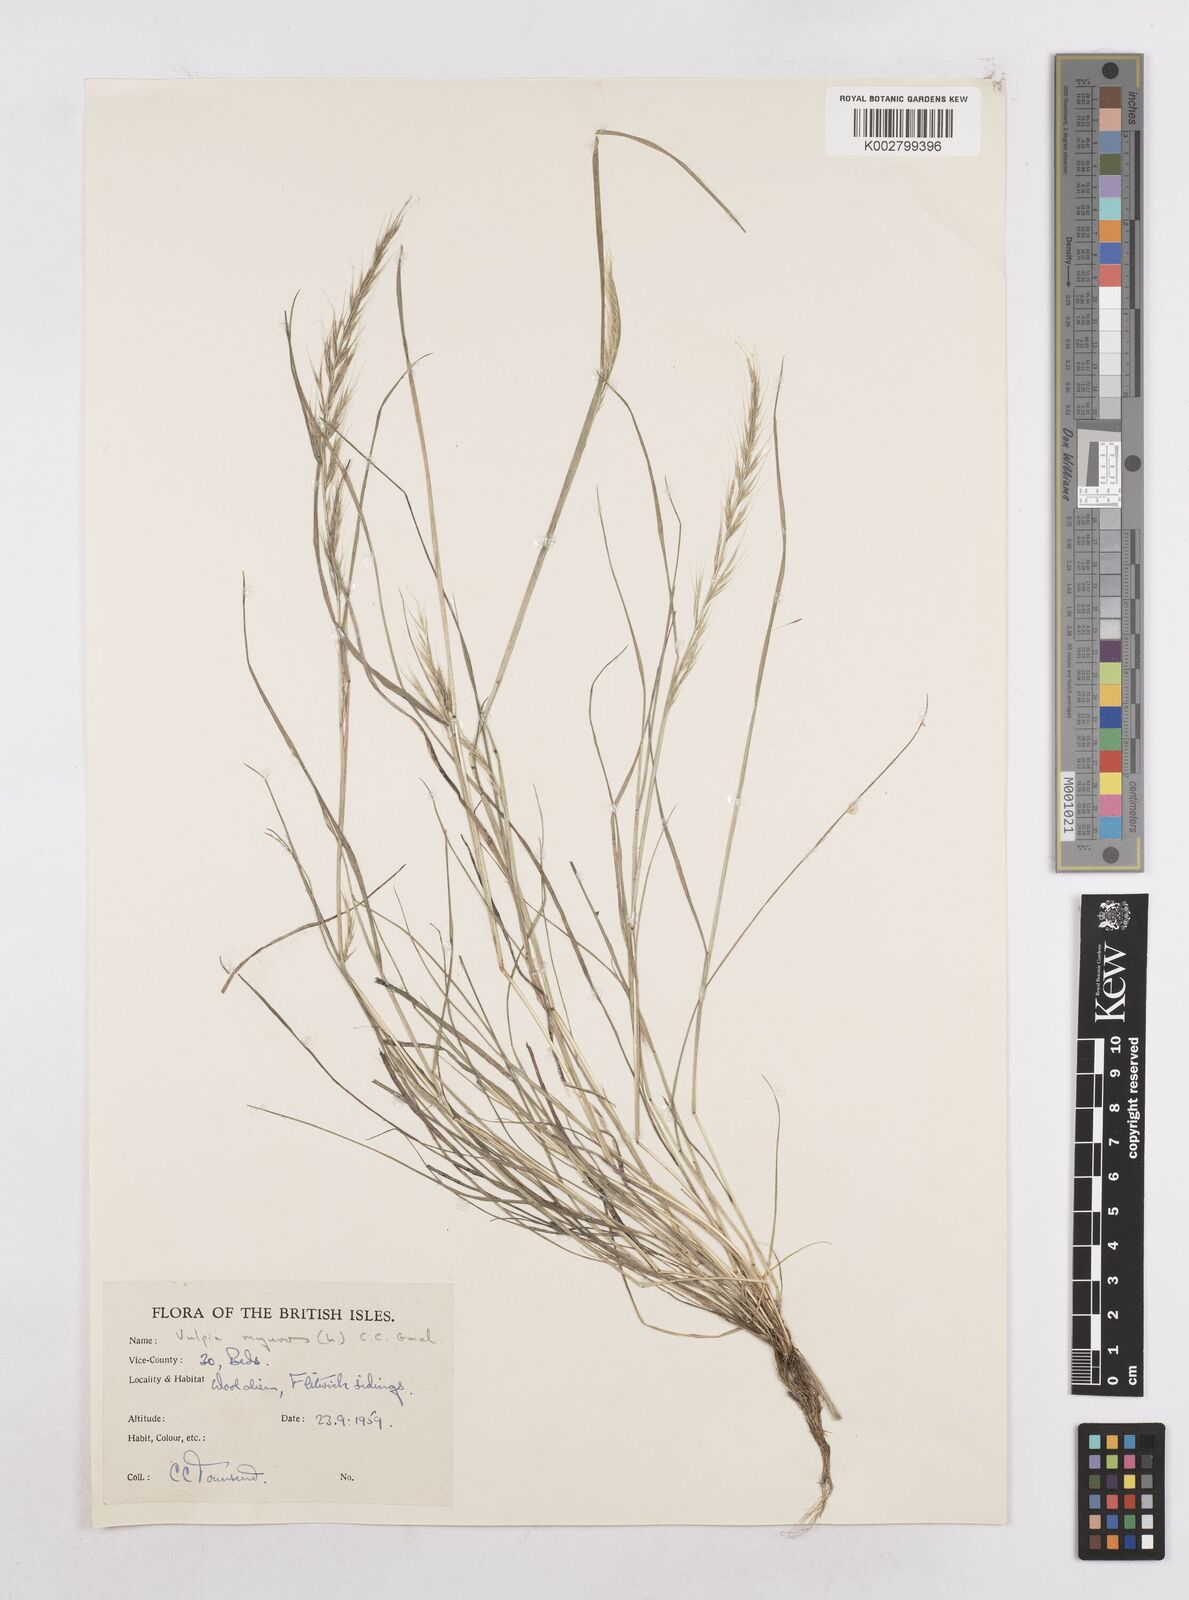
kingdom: Plantae
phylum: Tracheophyta
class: Liliopsida
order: Poales
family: Poaceae
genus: Festuca
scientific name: Festuca myuros
